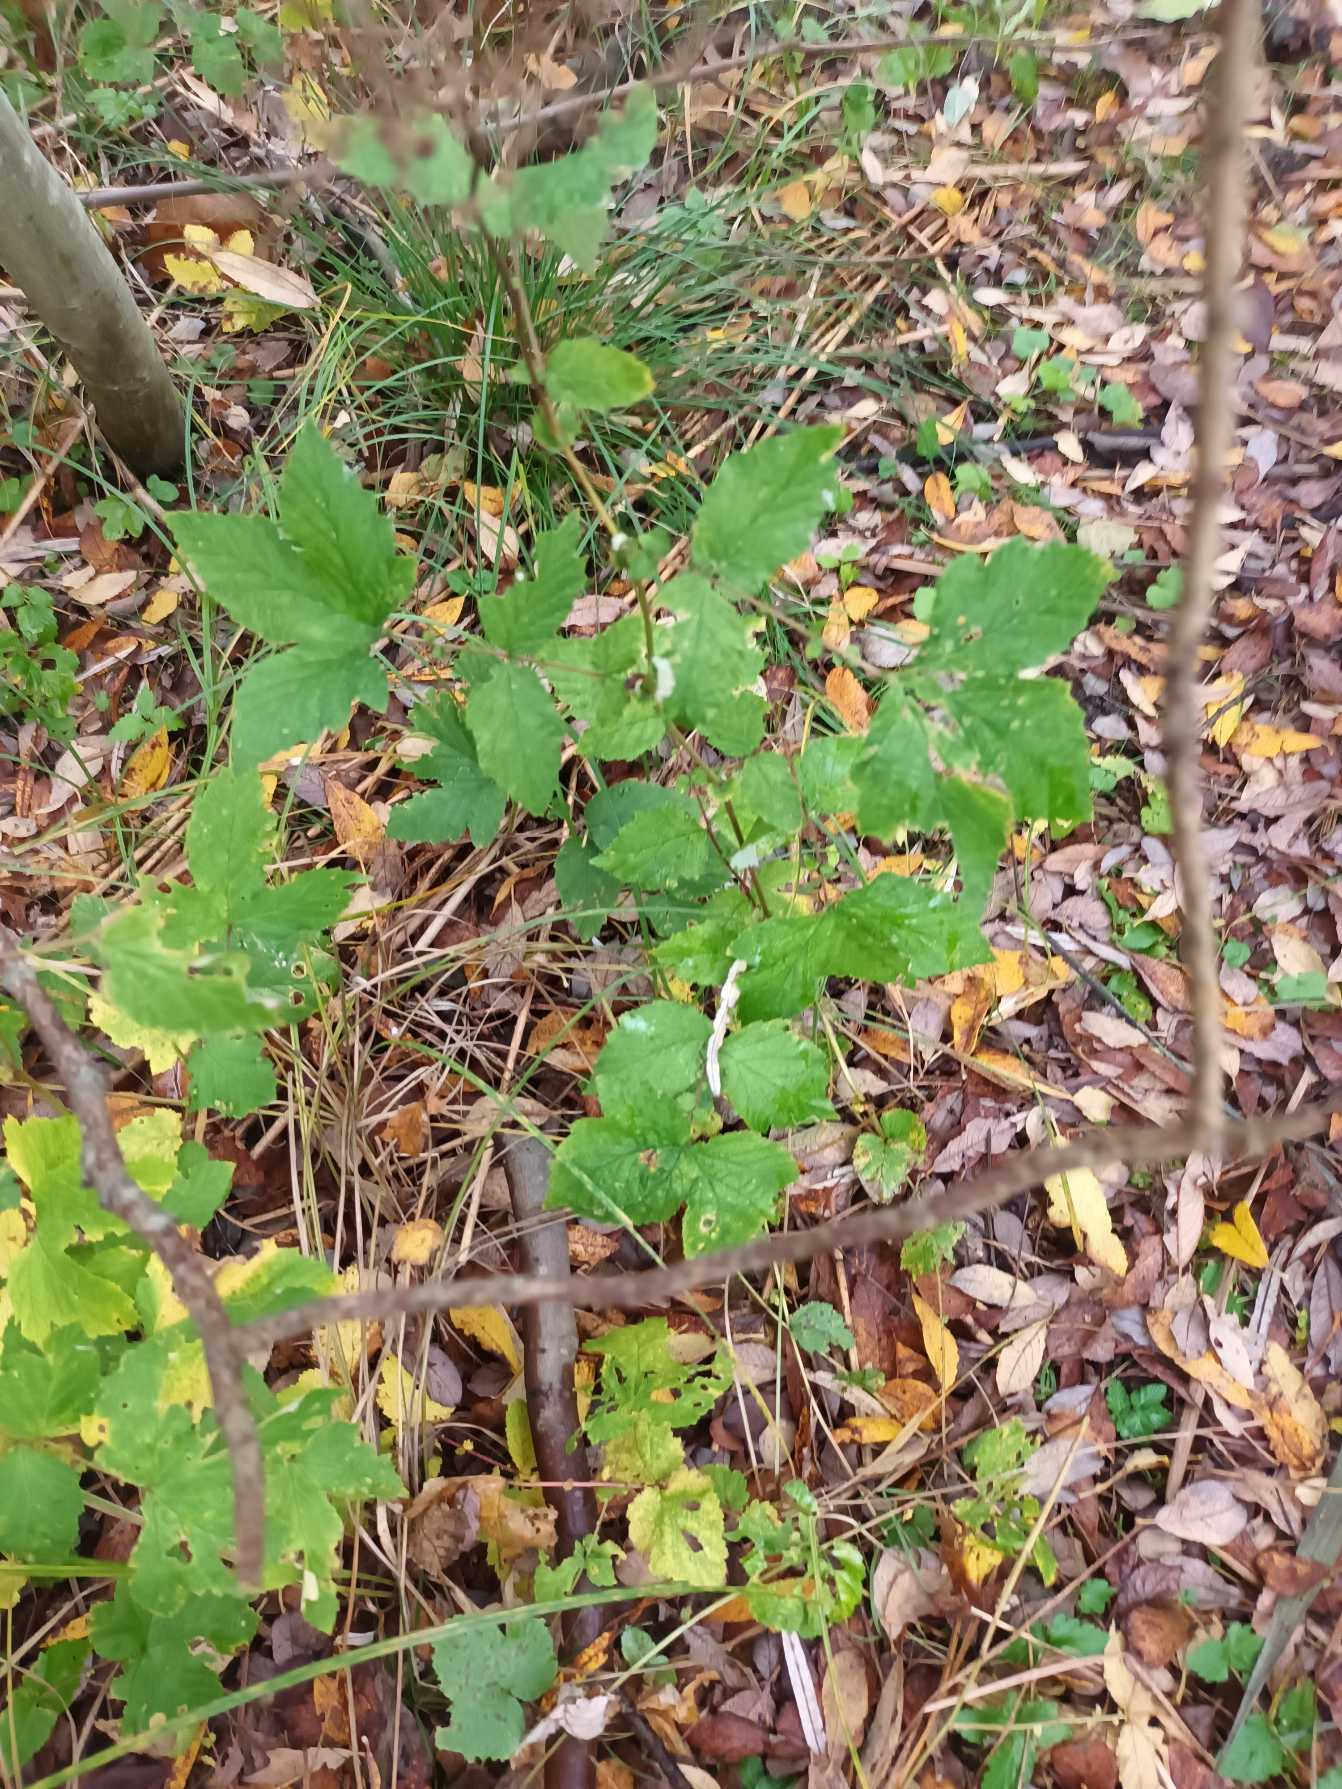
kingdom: Plantae
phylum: Tracheophyta
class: Magnoliopsida
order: Rosales
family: Rosaceae
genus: Filipendula
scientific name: Filipendula ulmaria
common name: Almindelig mjødurt
